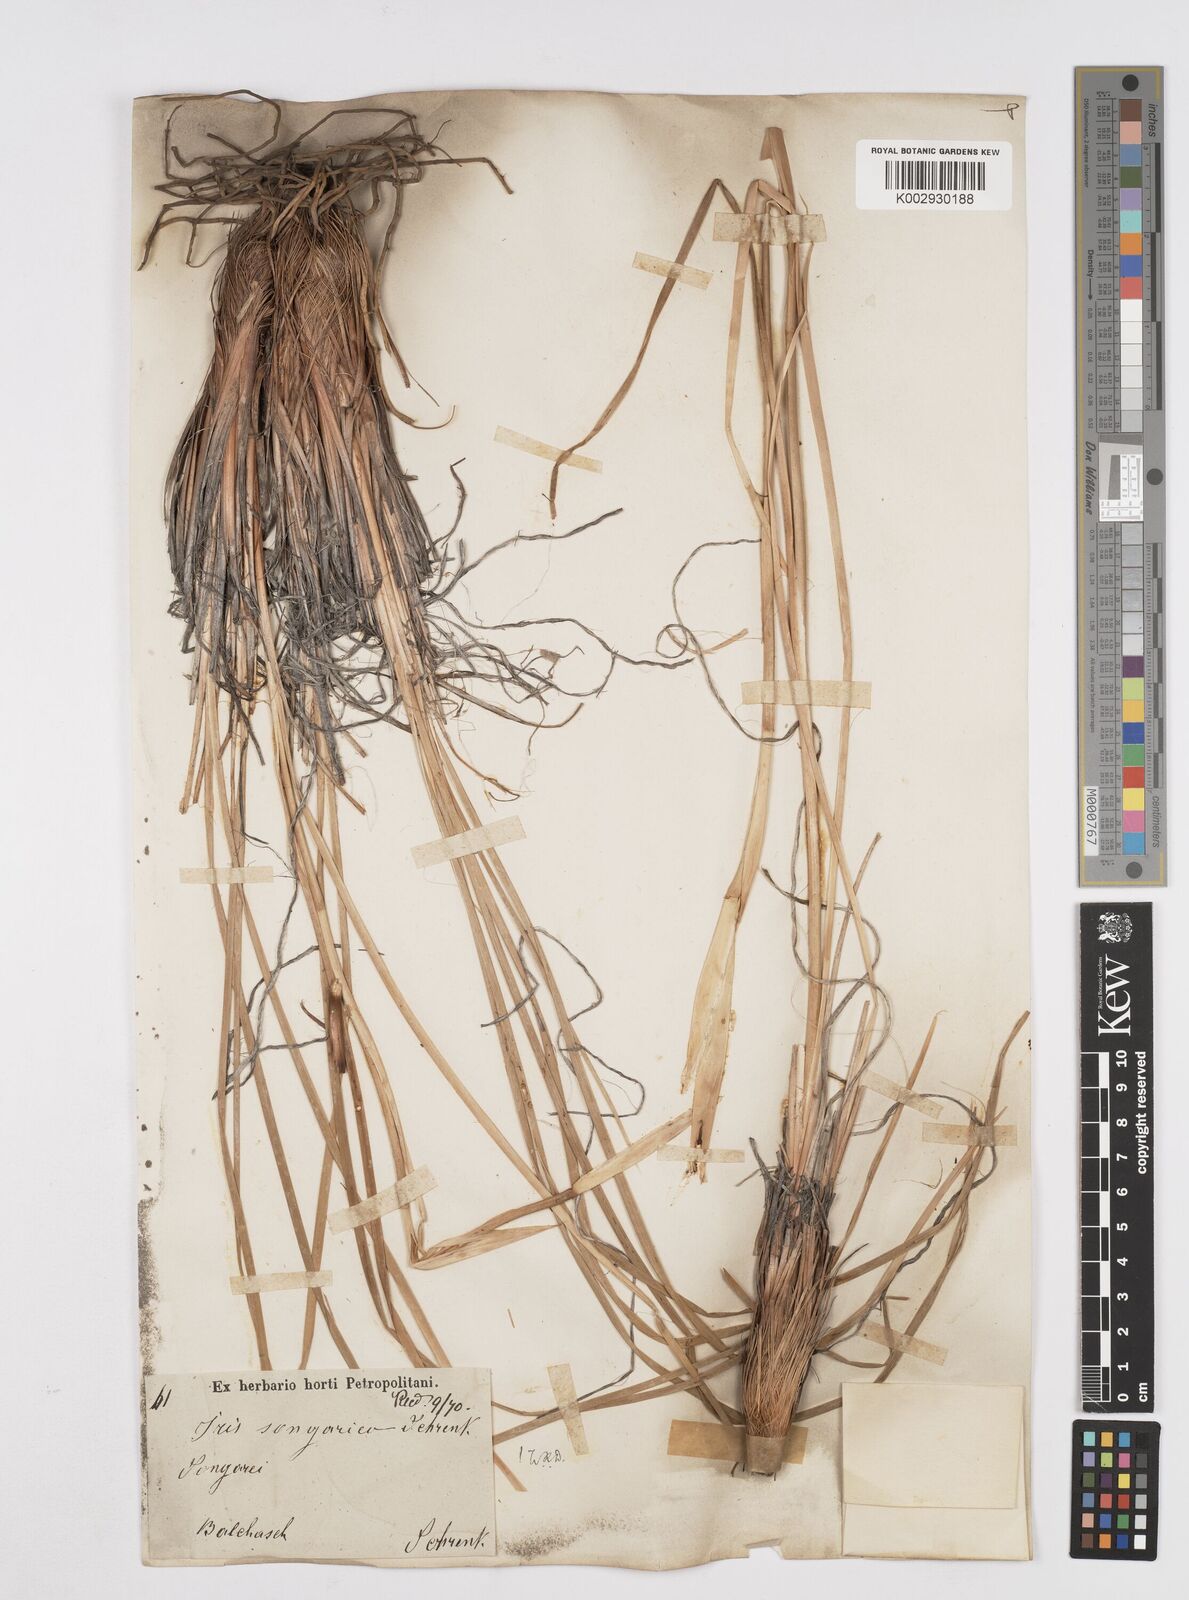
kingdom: Plantae
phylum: Tracheophyta
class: Liliopsida
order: Asparagales
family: Iridaceae
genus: Iris
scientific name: Iris songarica
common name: Songar iris
